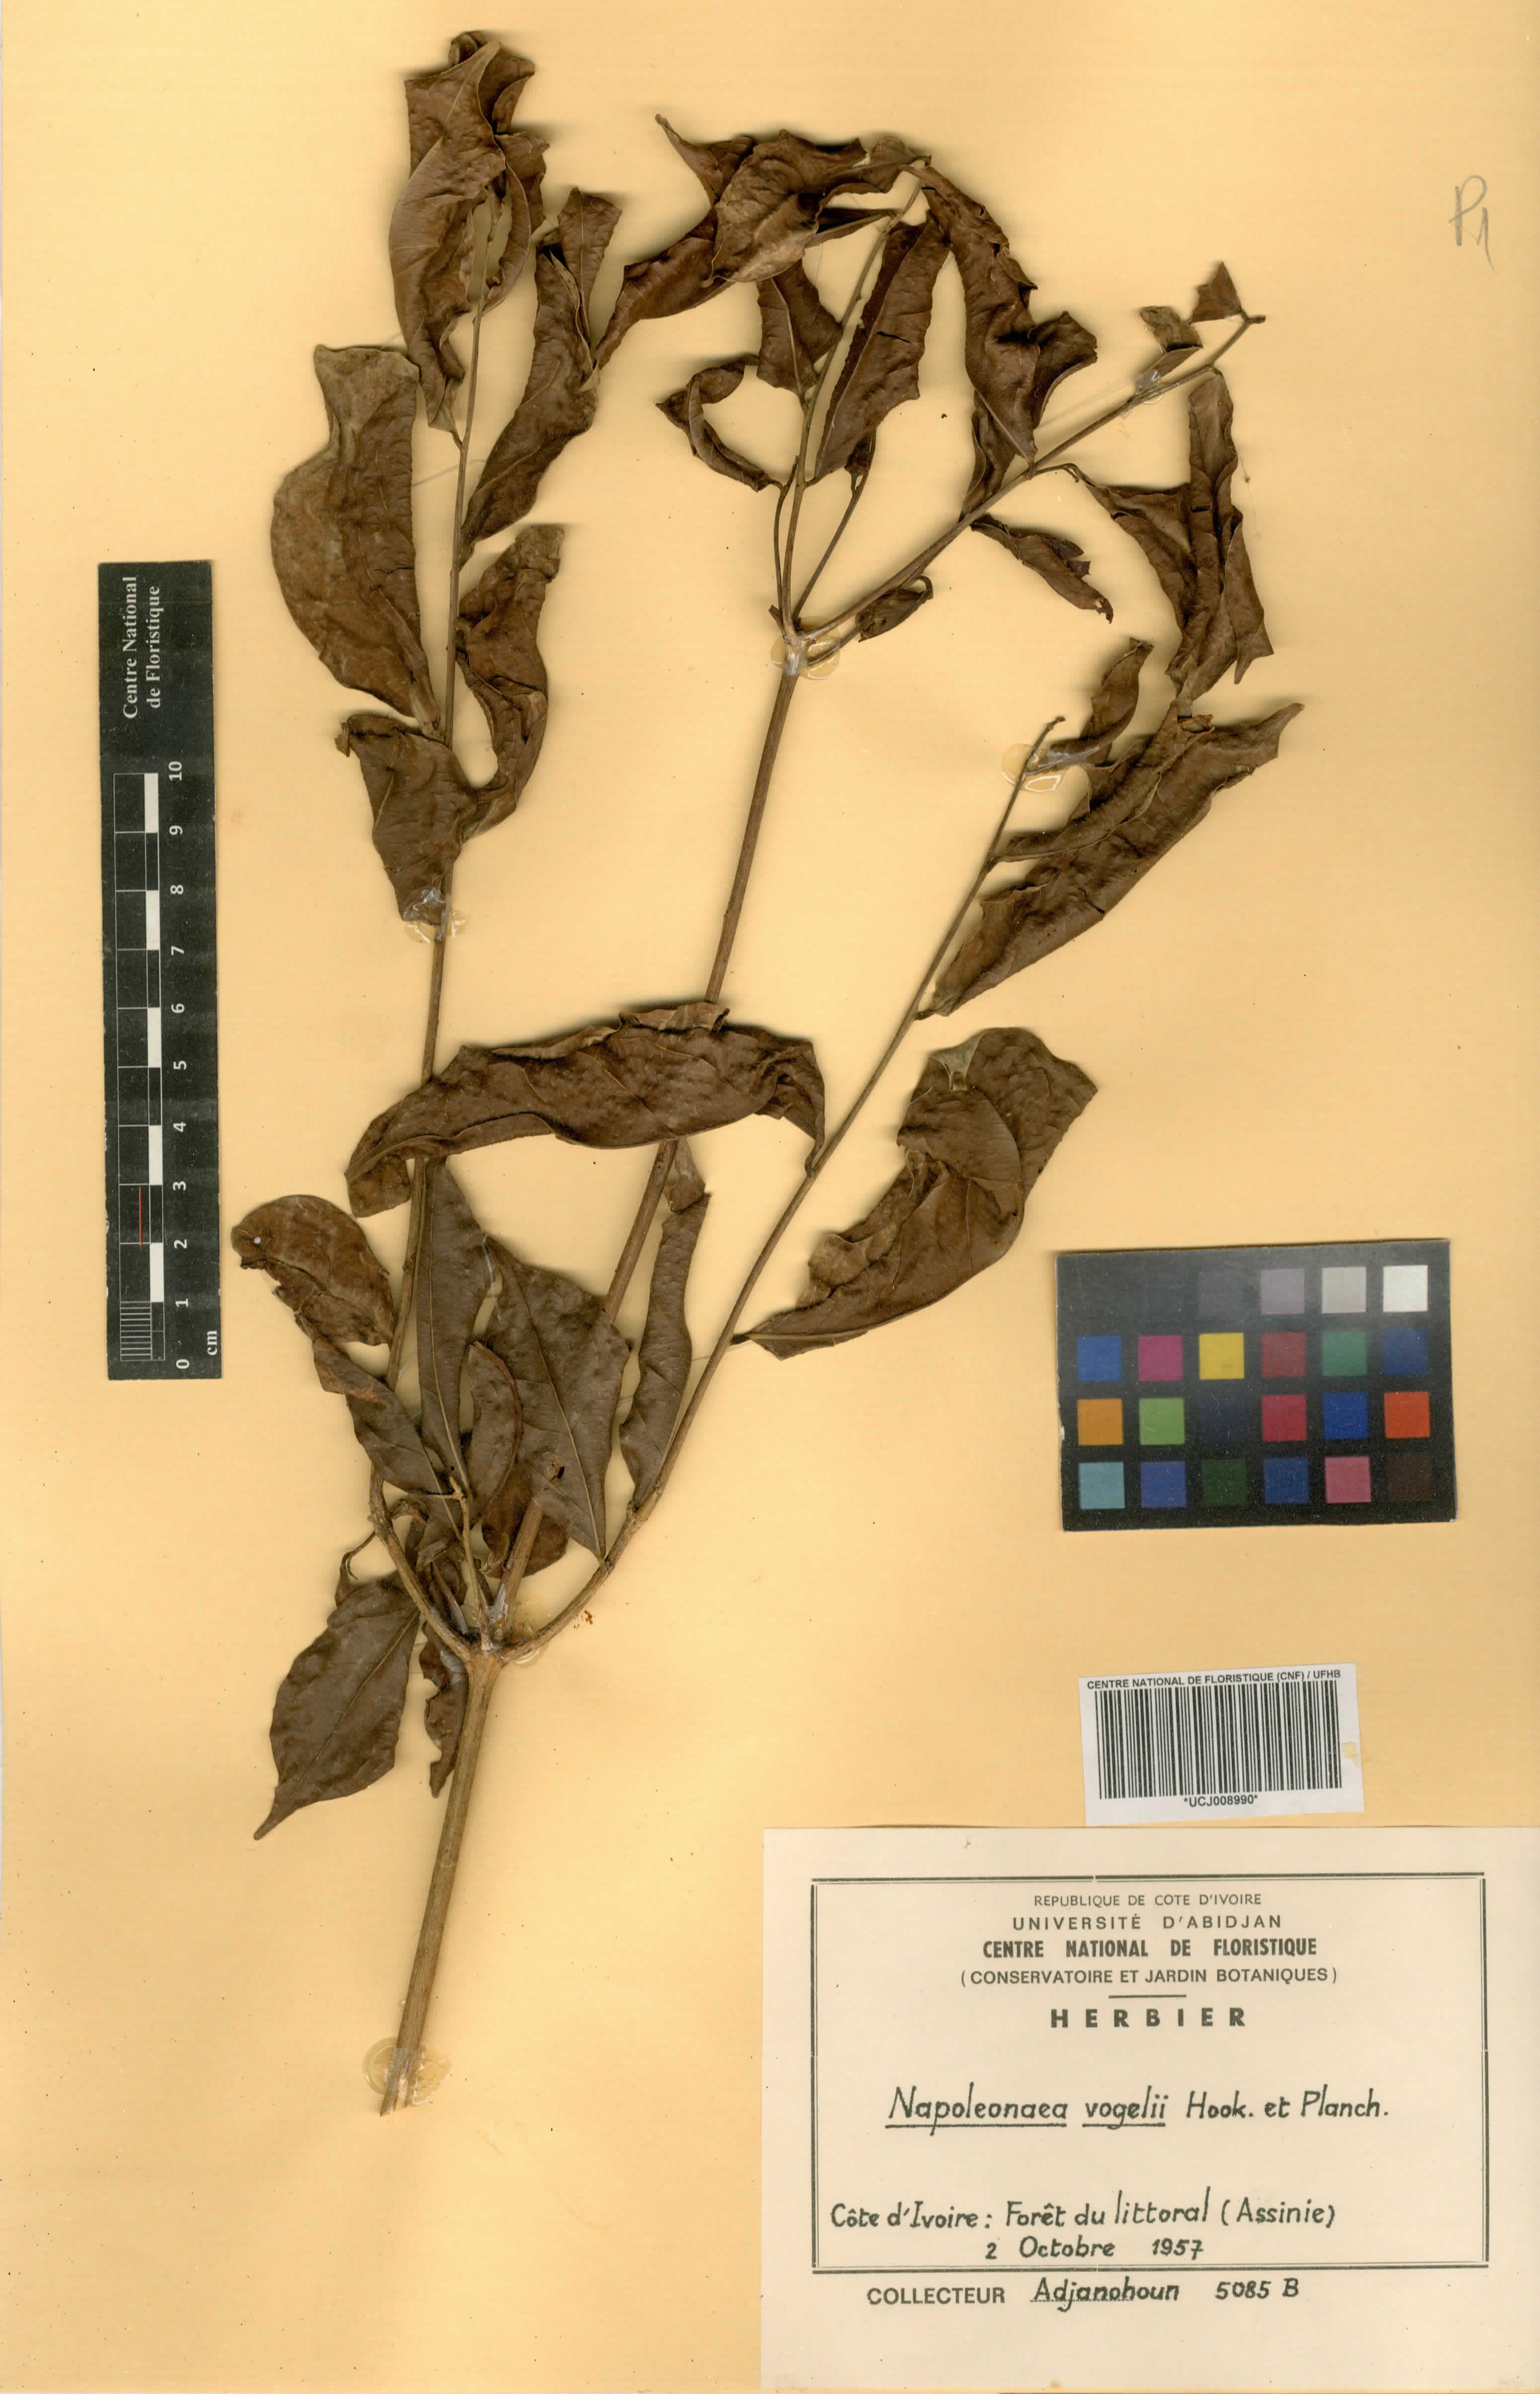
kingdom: Plantae
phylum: Tracheophyta
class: Magnoliopsida
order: Ericales
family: Lecythidaceae
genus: Napoleonaea
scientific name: Napoleonaea vogelii
